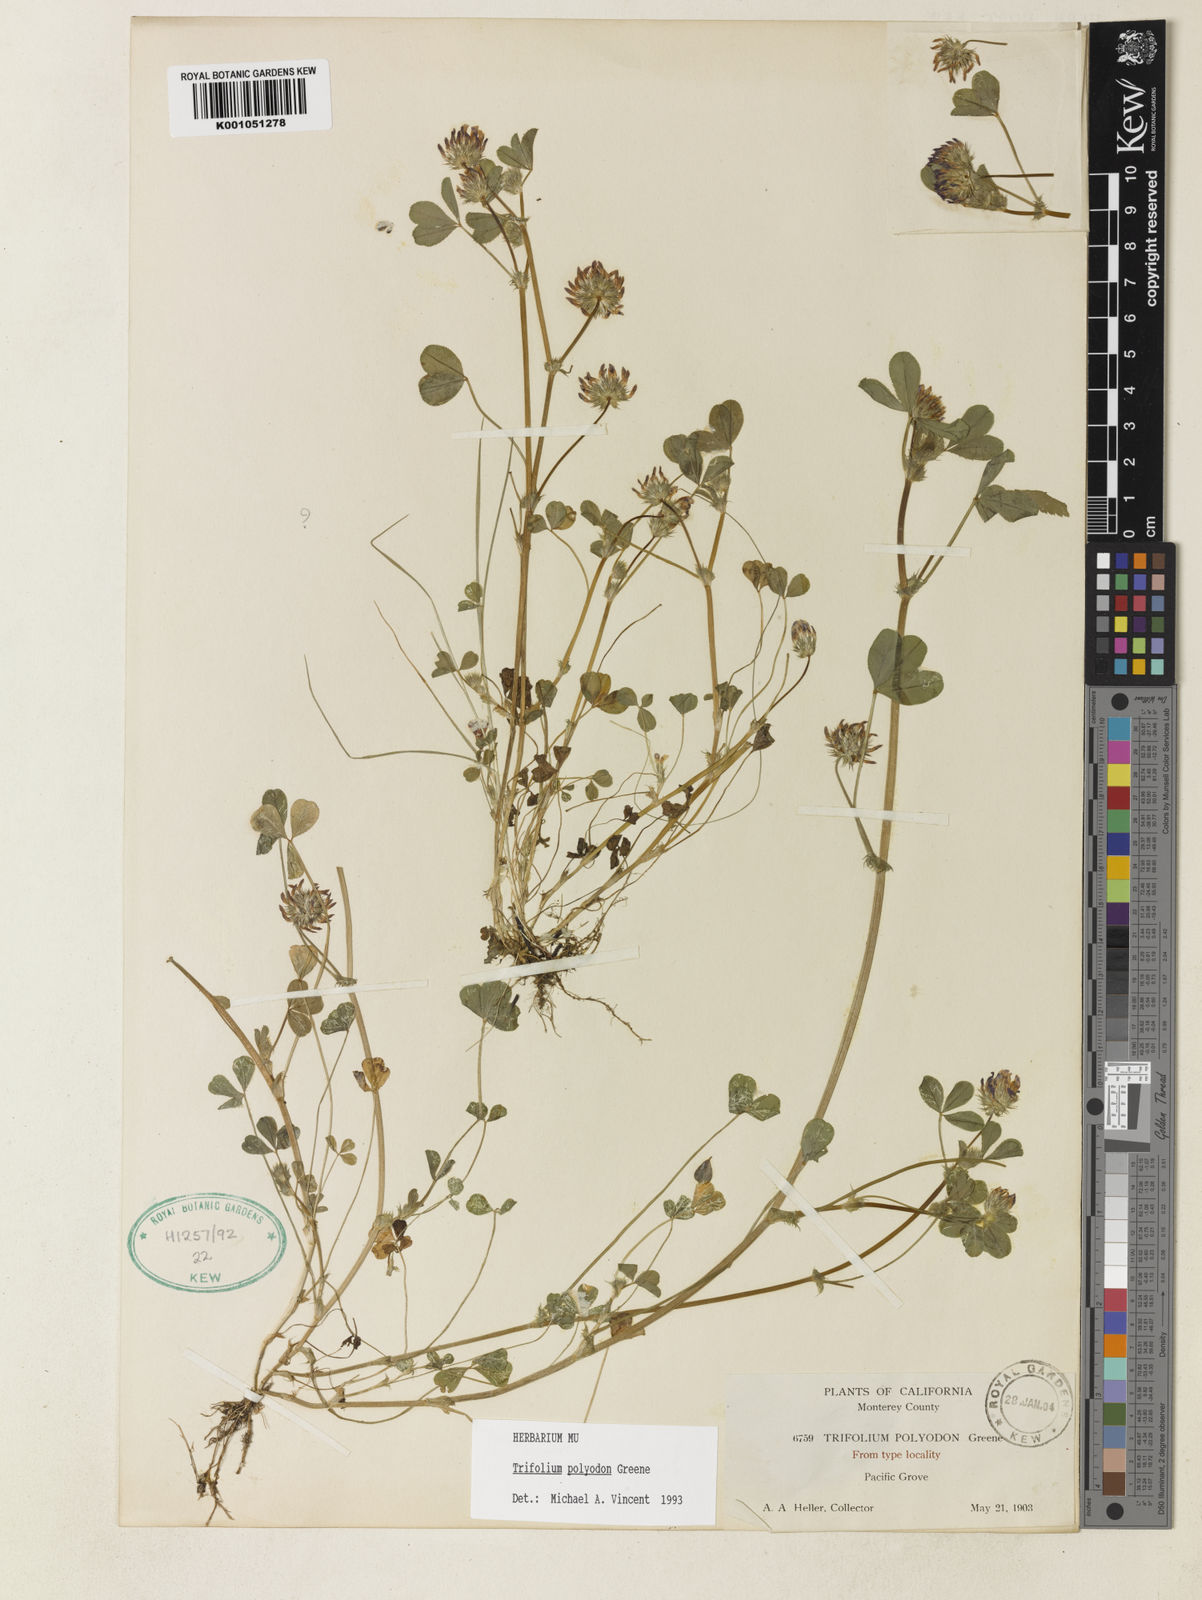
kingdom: Plantae
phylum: Tracheophyta
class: Magnoliopsida
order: Fabales
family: Fabaceae
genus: Trifolium
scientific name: Trifolium polyodon
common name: Pacific grove clover
